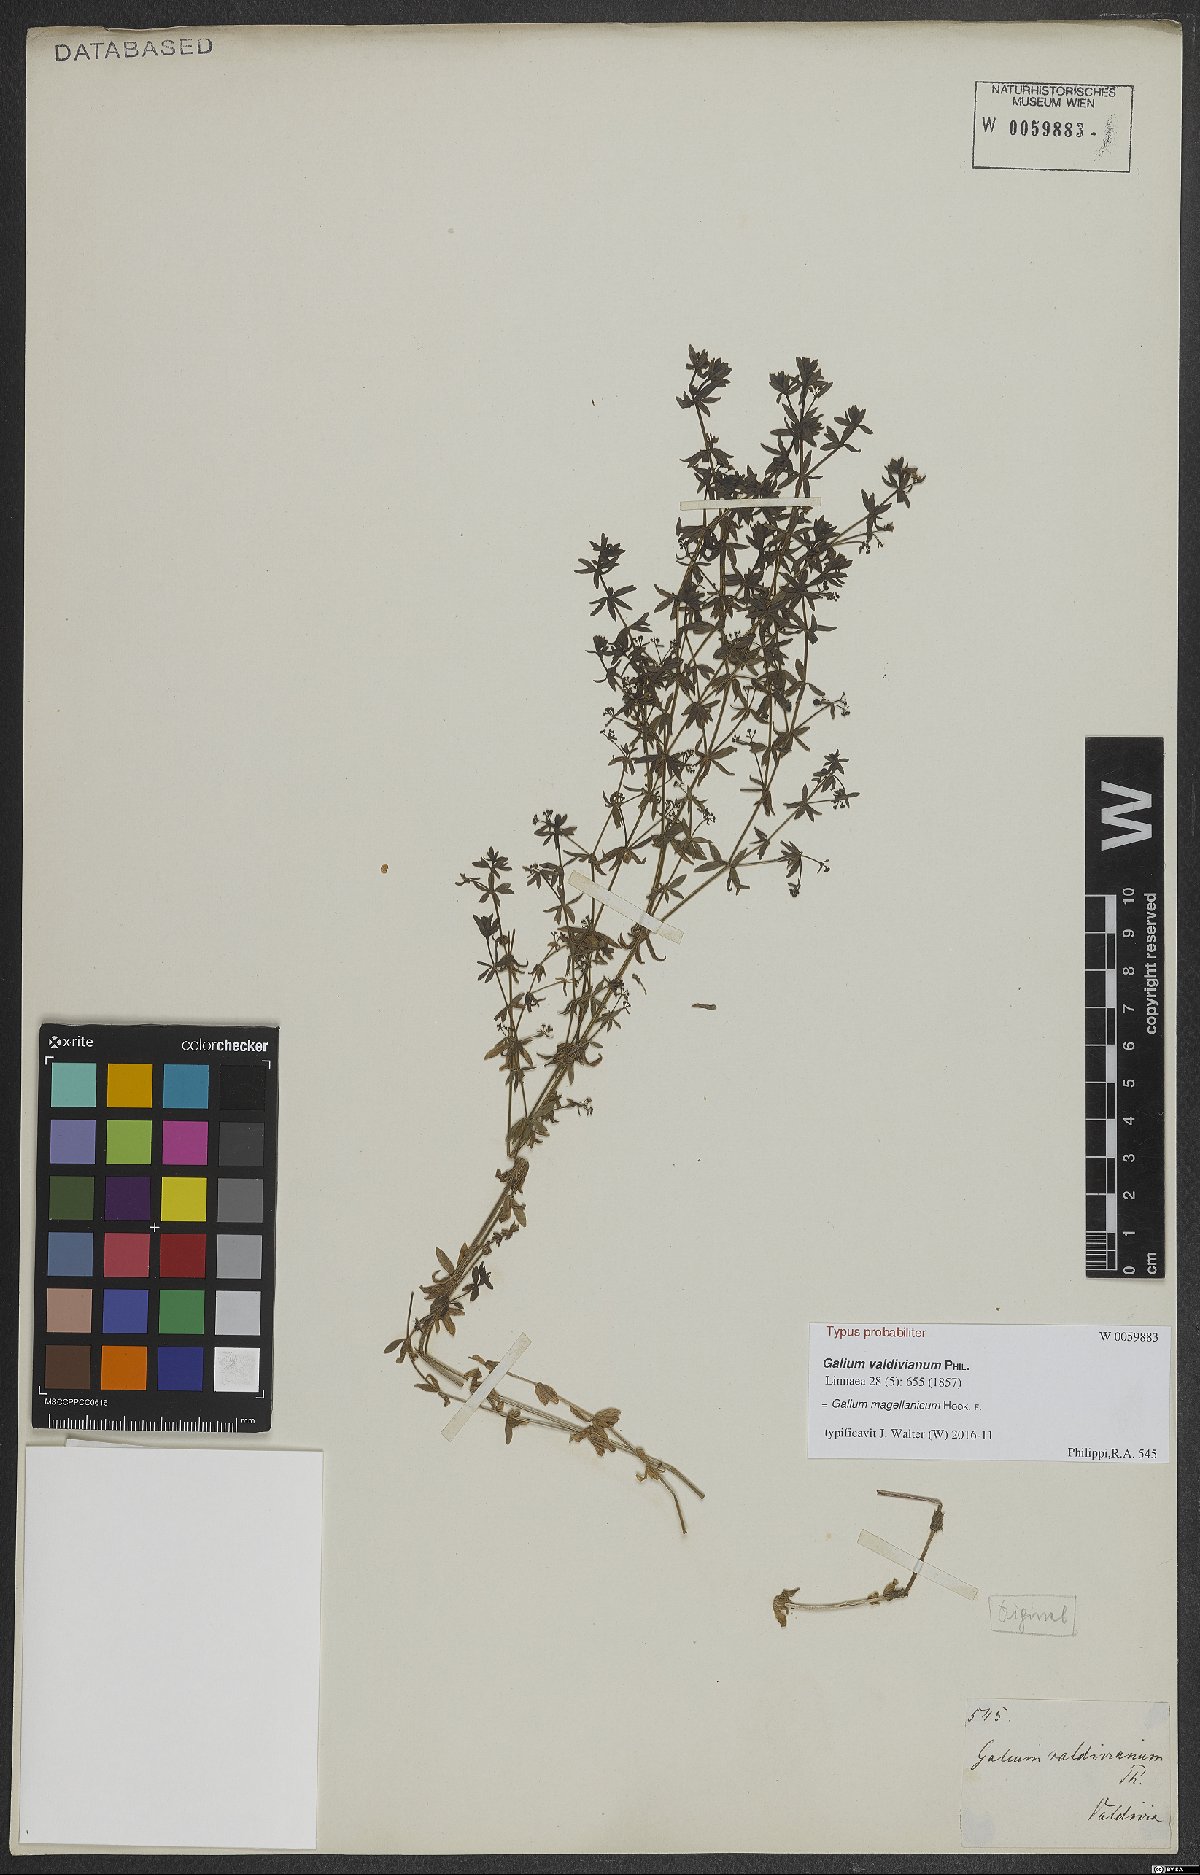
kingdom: Plantae
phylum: Tracheophyta
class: Magnoliopsida
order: Gentianales
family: Rubiaceae
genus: Galium
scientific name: Galium magellanicum
